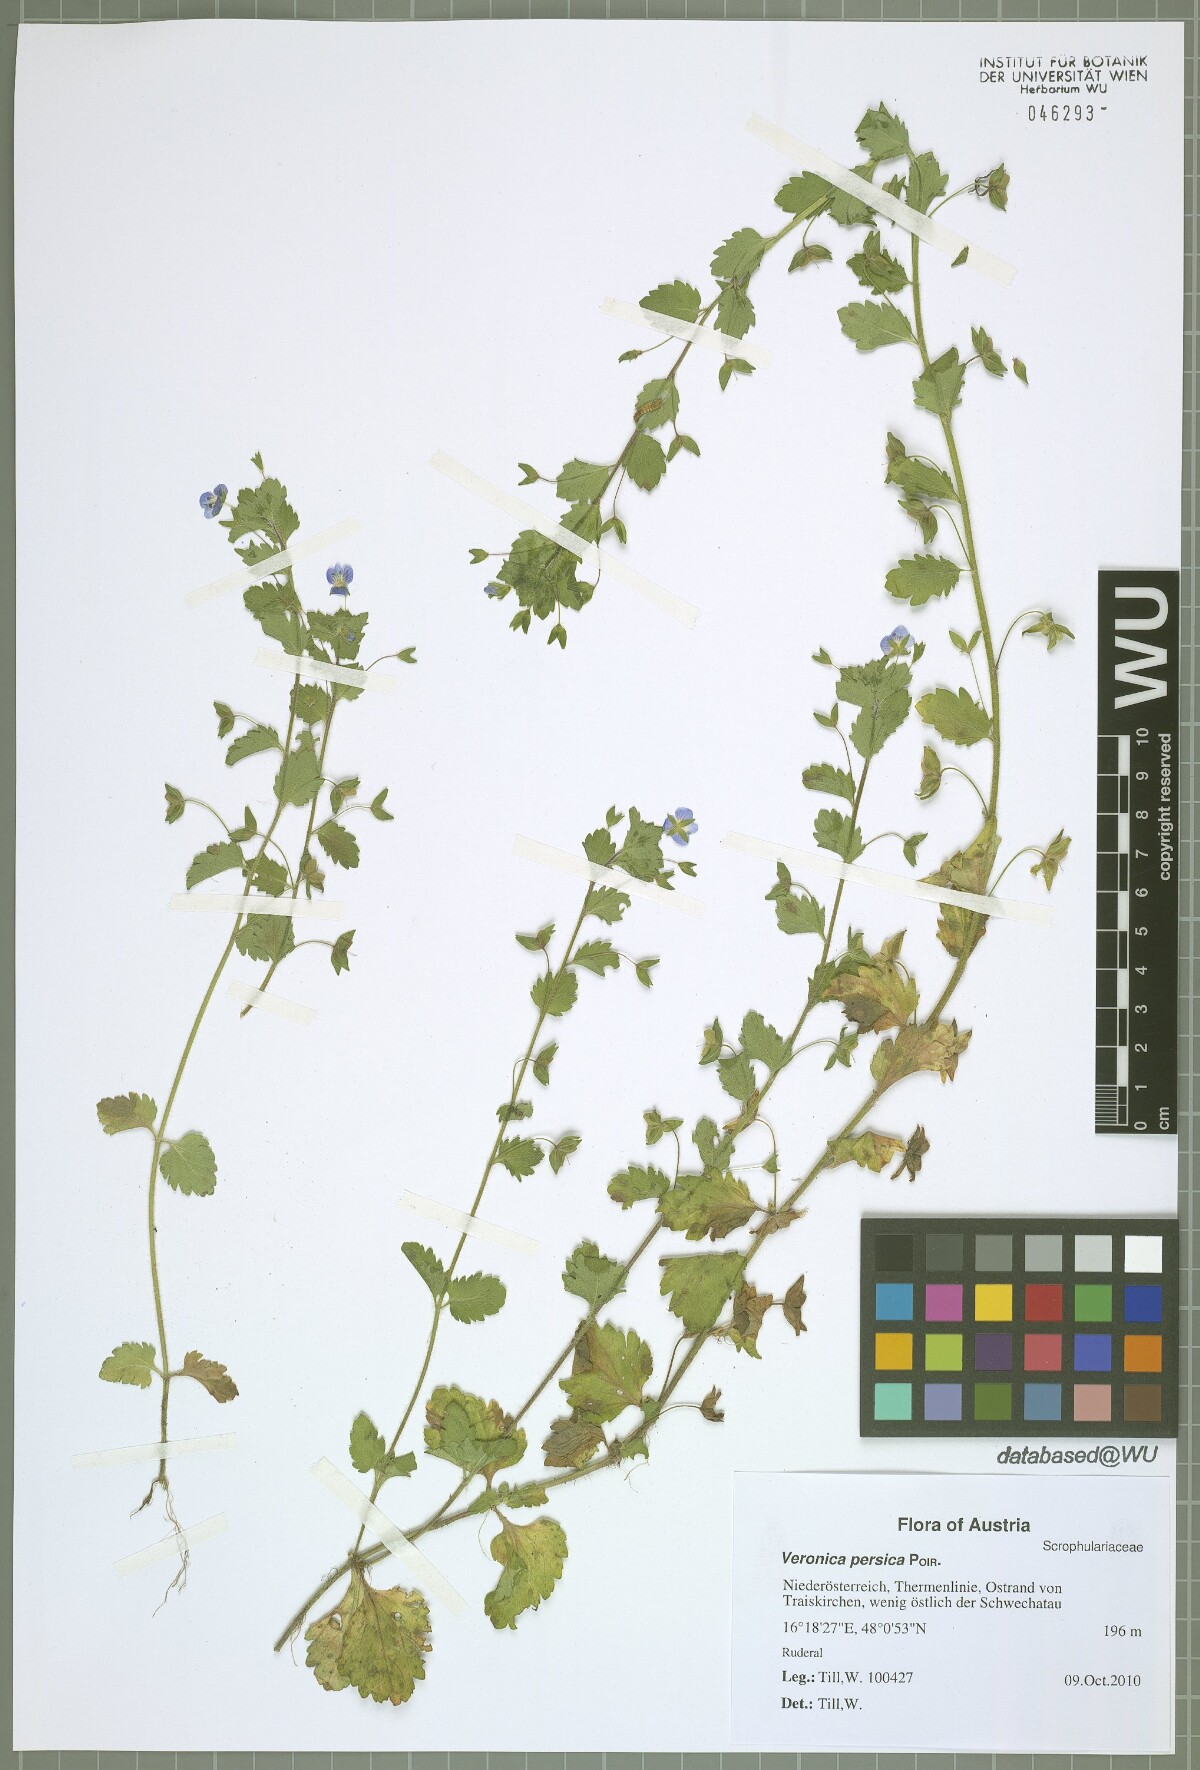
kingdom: Plantae
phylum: Tracheophyta
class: Magnoliopsida
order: Lamiales
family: Plantaginaceae
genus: Veronica
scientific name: Veronica persica
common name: Common field-speedwell
